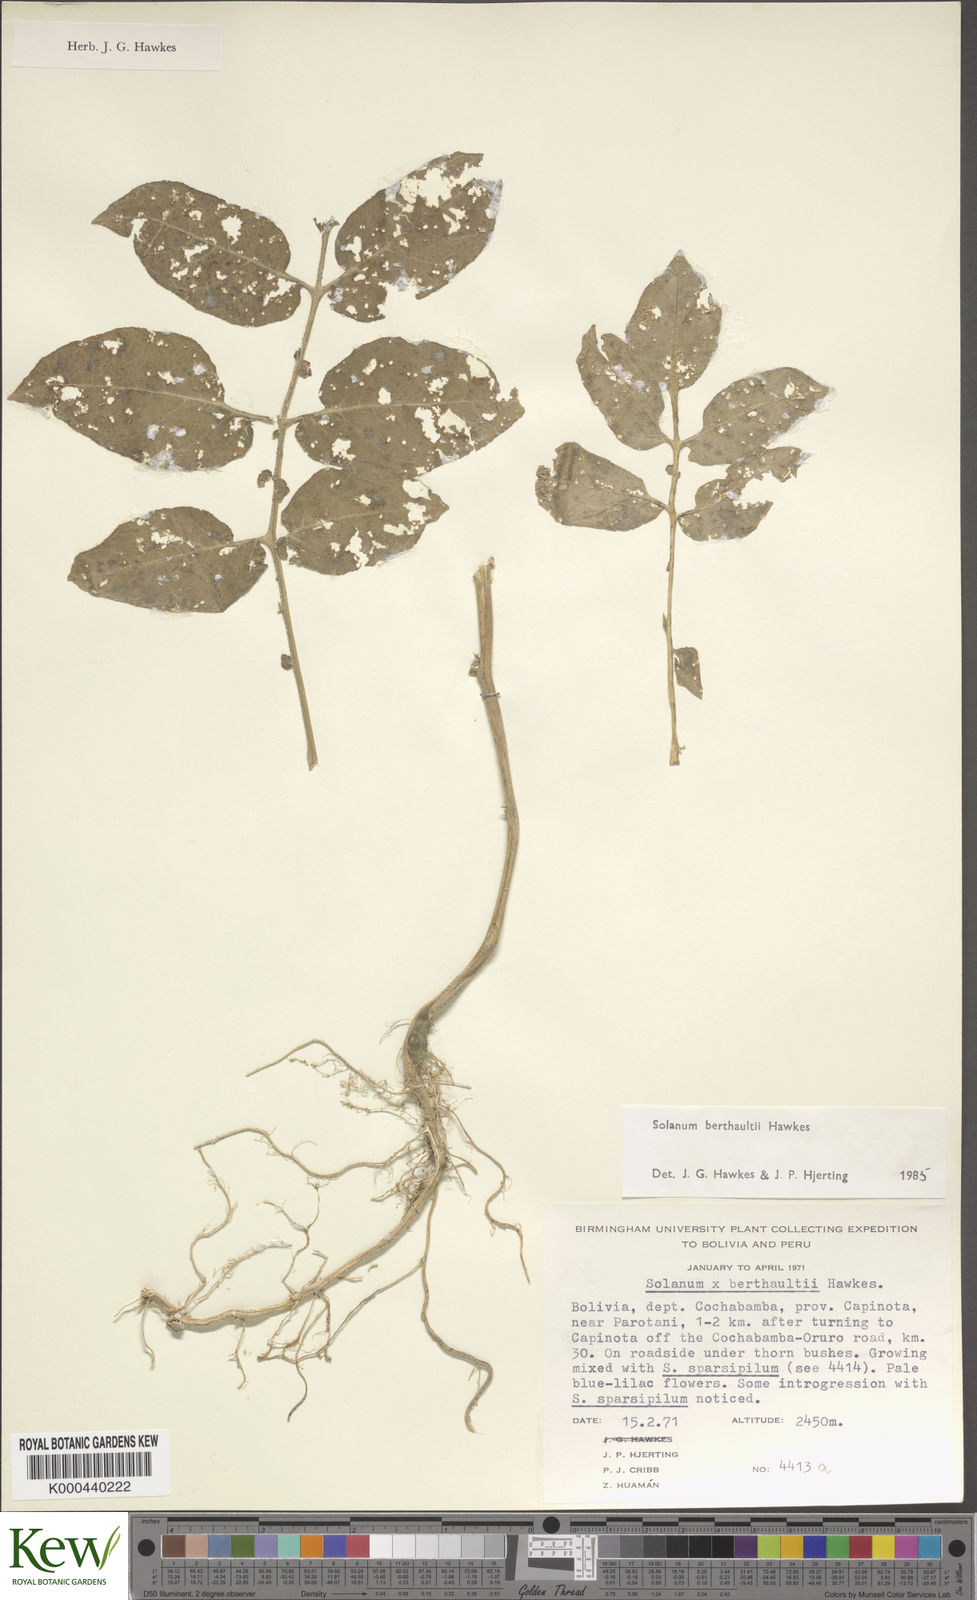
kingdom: Plantae
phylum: Tracheophyta
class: Magnoliopsida
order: Solanales
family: Solanaceae
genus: Solanum
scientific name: Solanum berthaultii
